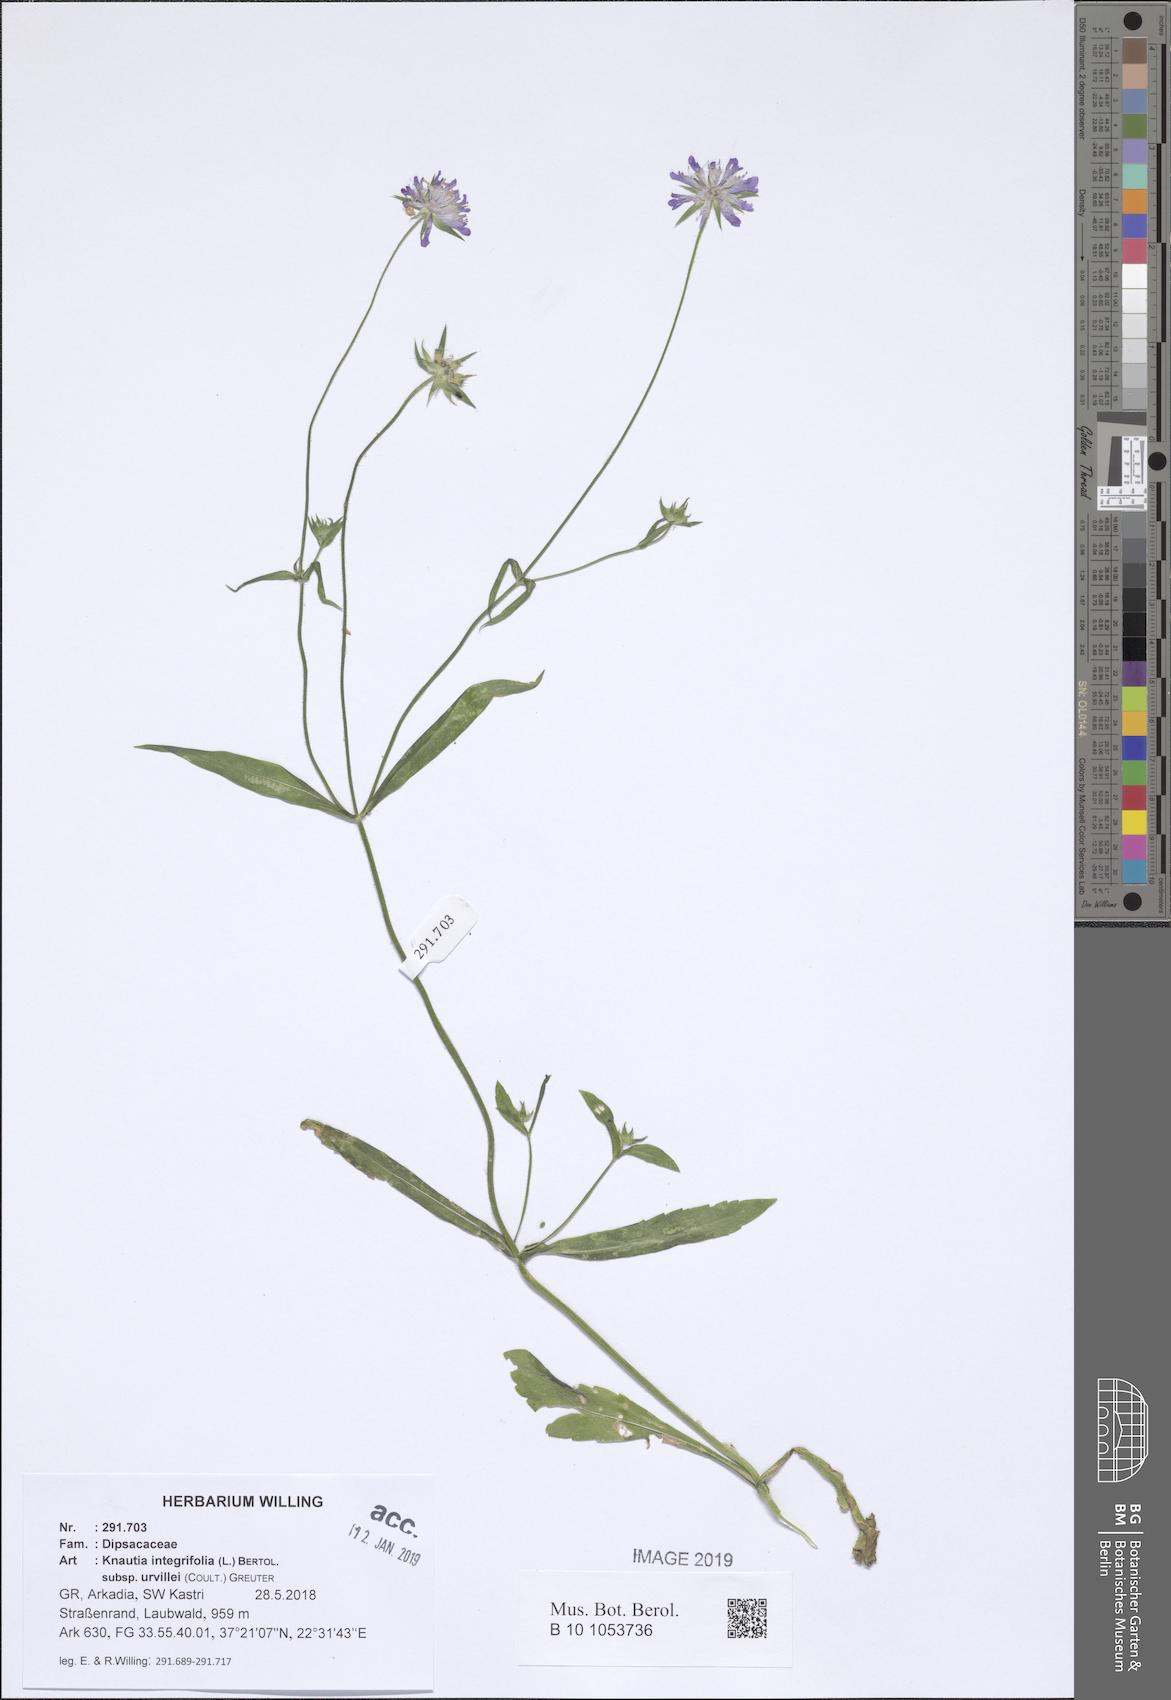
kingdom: Plantae
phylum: Tracheophyta
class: Magnoliopsida
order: Dipsacales
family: Caprifoliaceae
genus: Knautia
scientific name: Knautia integrifolia
